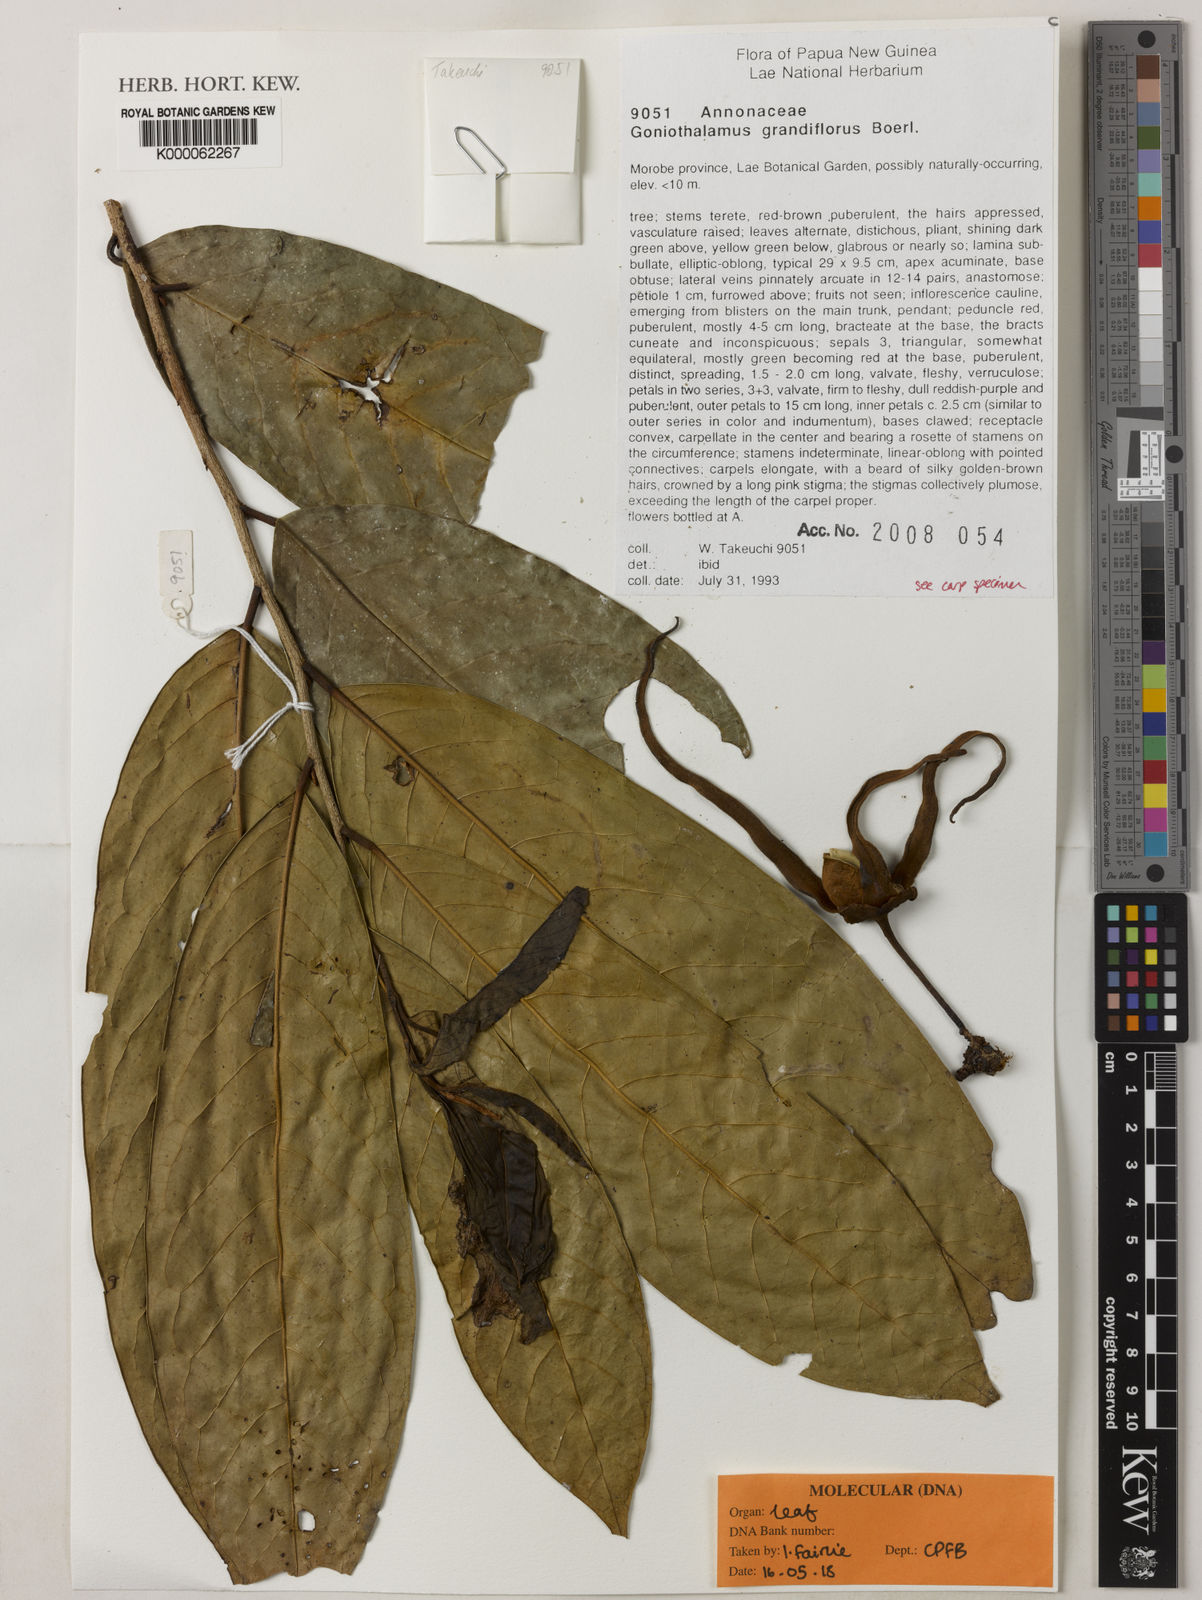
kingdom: Plantae
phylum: Tracheophyta
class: Magnoliopsida
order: Magnoliales
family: Annonaceae
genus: Goniothalamus
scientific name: Goniothalamus grandiflorus
